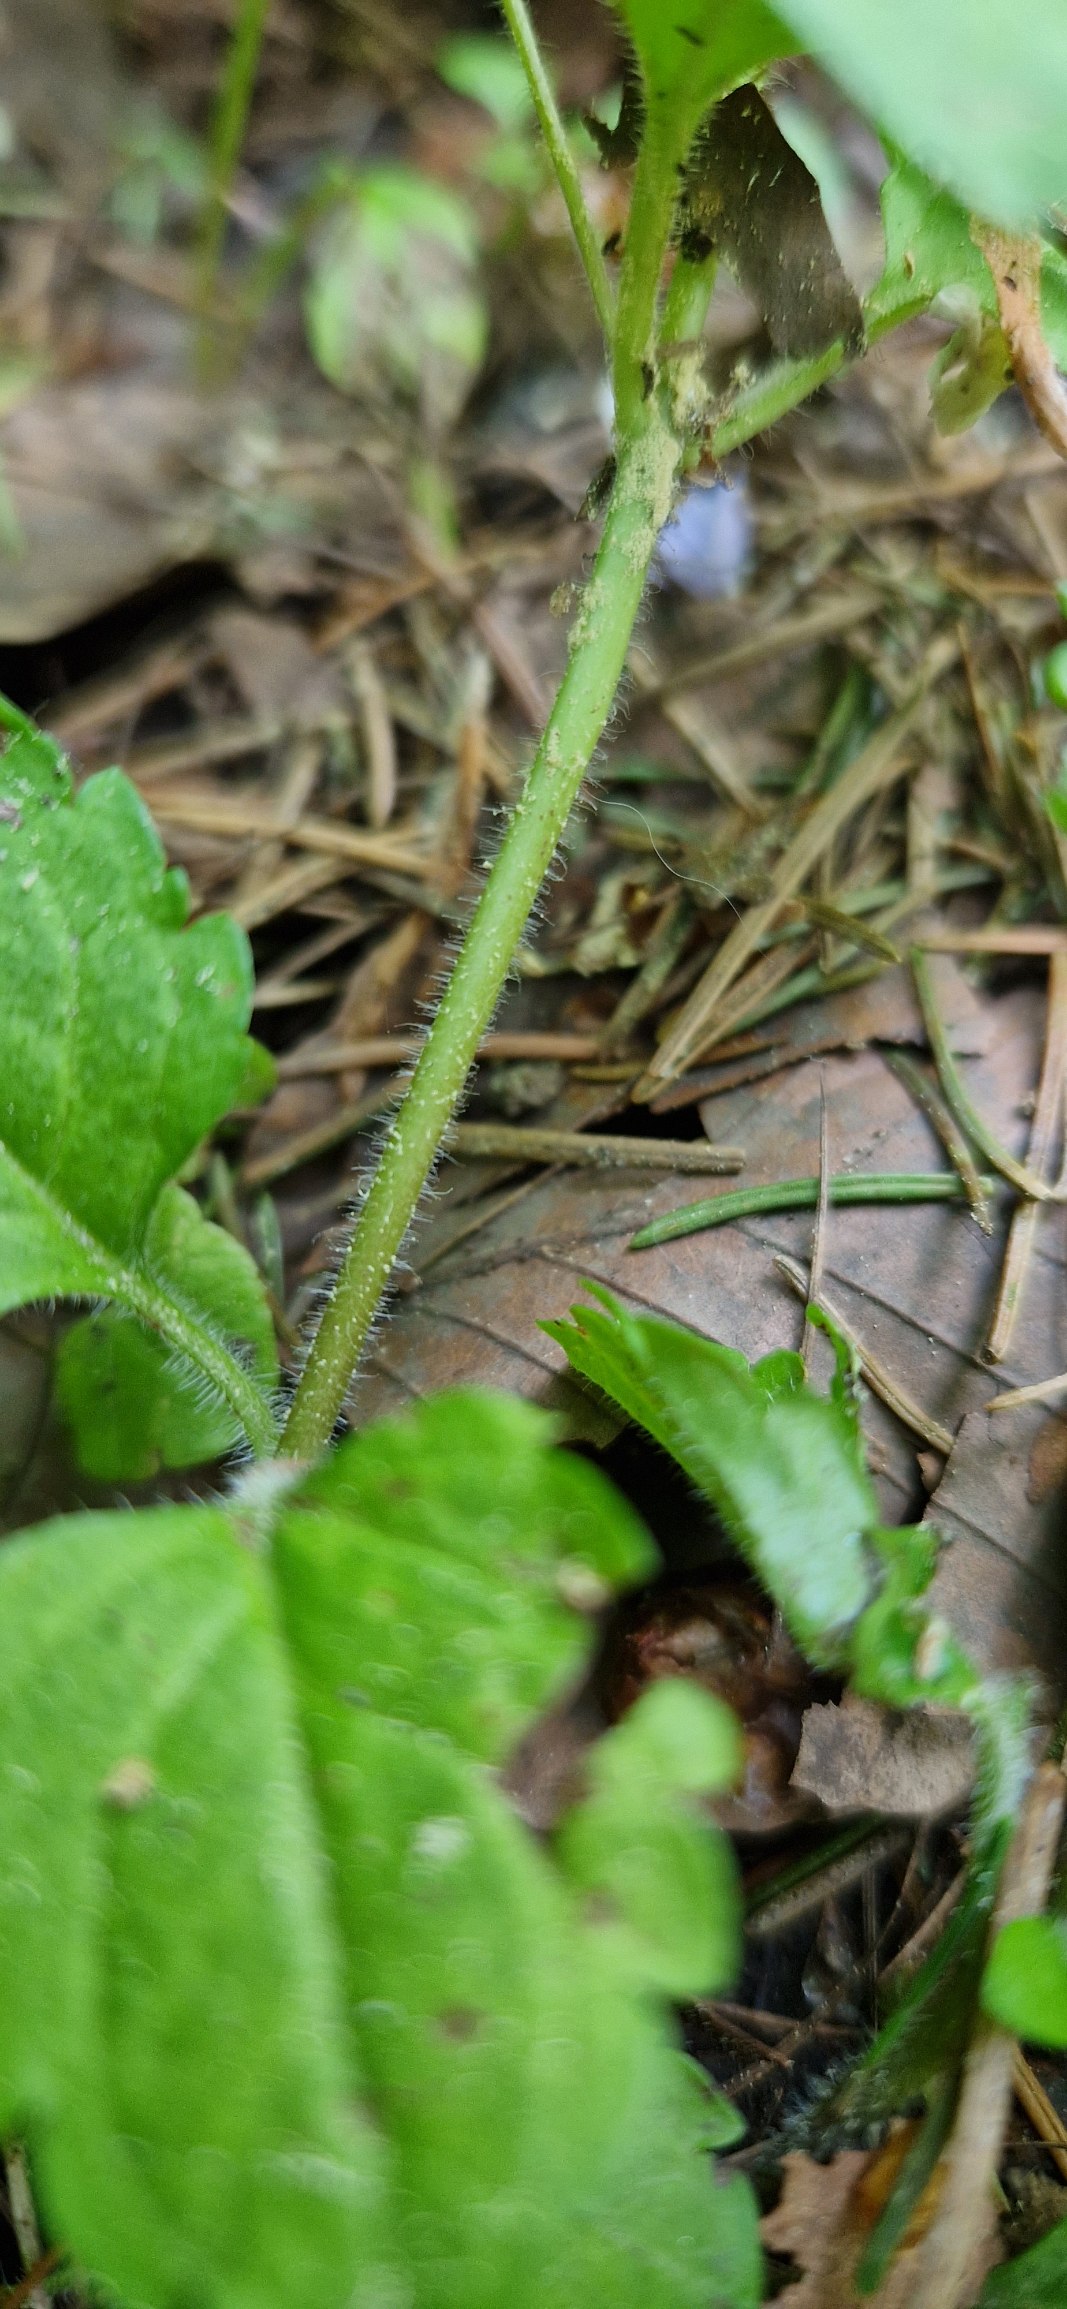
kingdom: Plantae
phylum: Tracheophyta
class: Magnoliopsida
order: Lamiales
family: Plantaginaceae
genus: Veronica
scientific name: Veronica montana
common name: Bjerg-ærenpris
